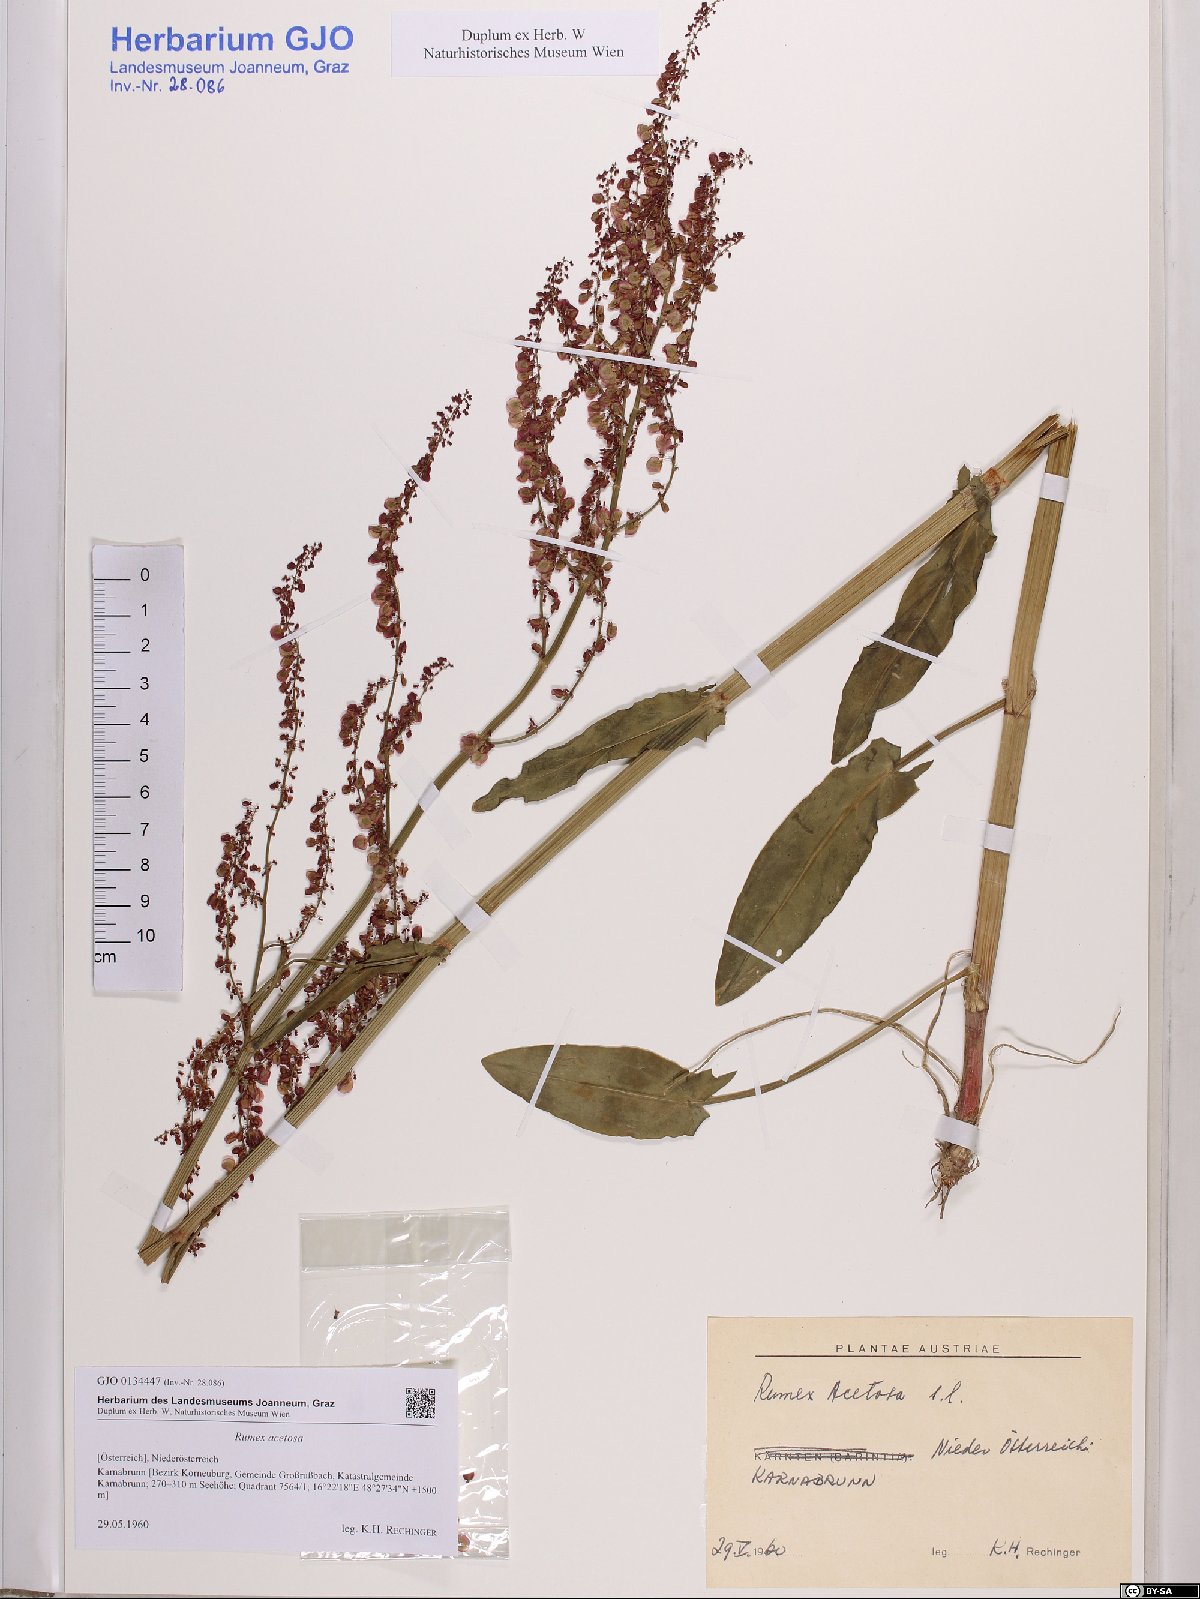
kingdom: Plantae
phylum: Tracheophyta
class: Magnoliopsida
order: Caryophyllales
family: Polygonaceae
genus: Rumex
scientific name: Rumex acetosa
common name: Garden sorrel
